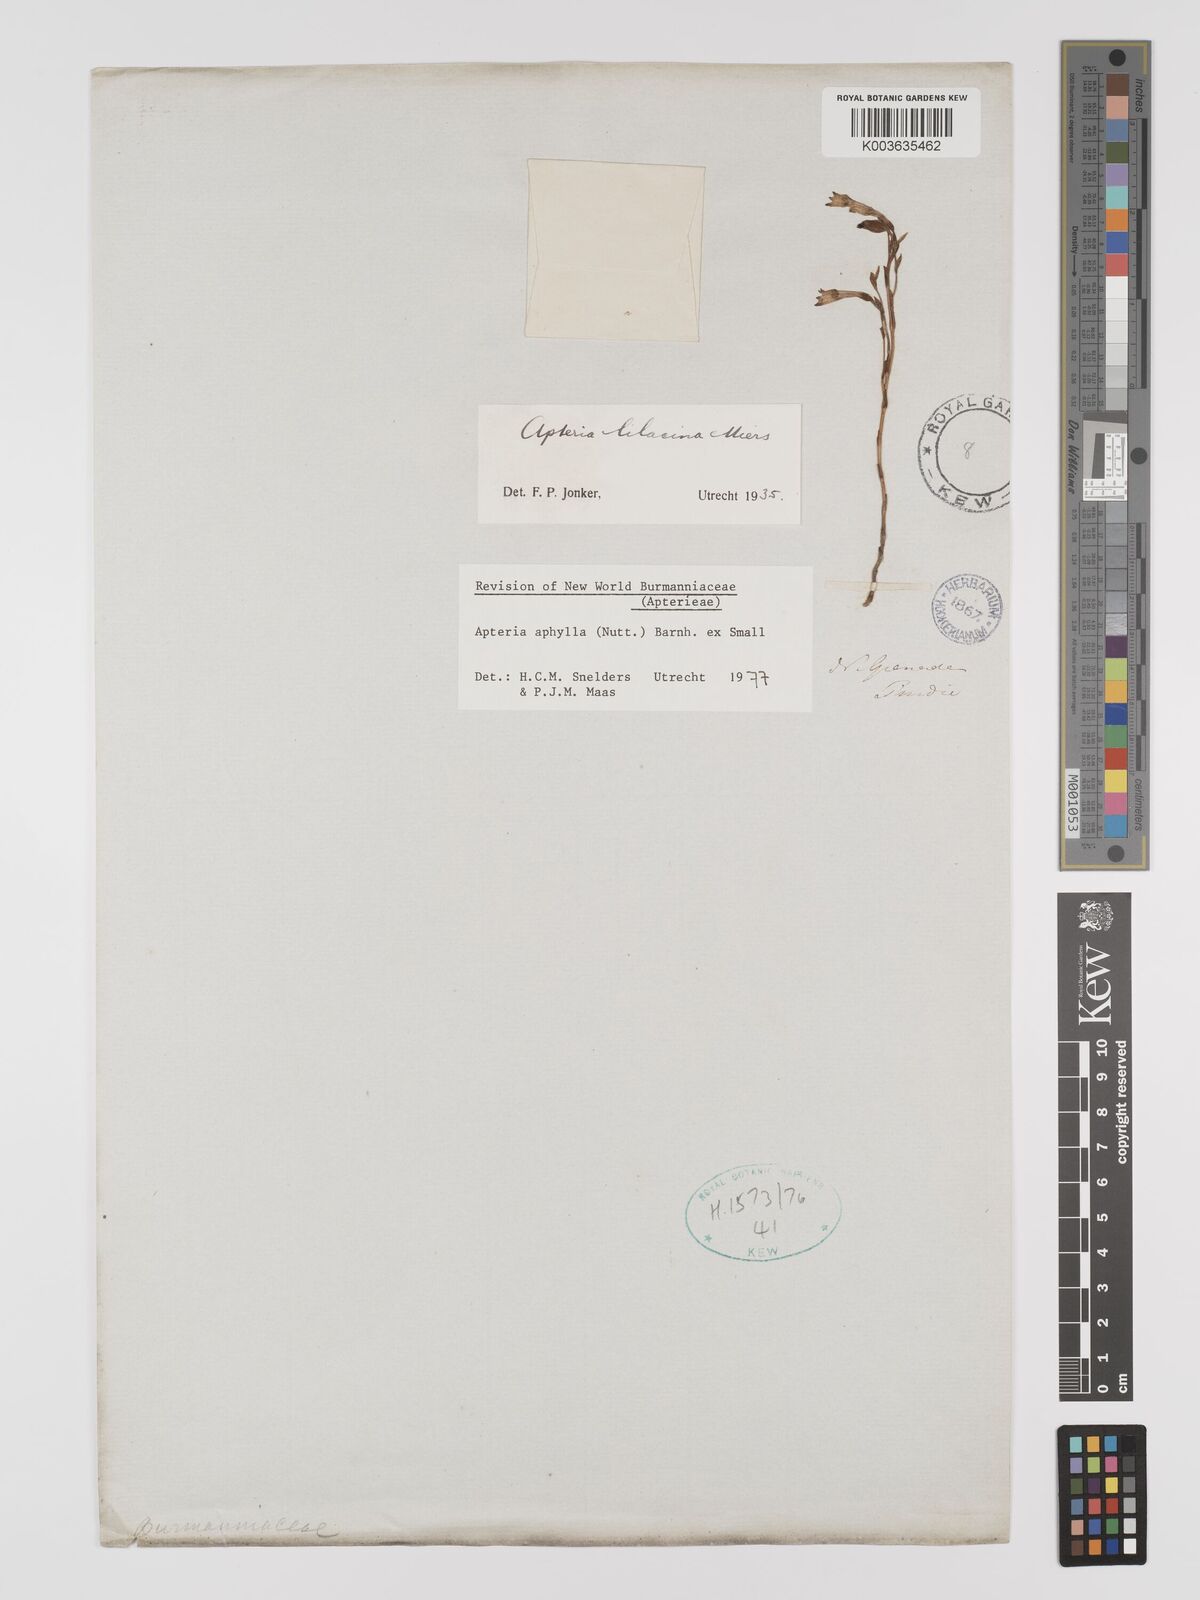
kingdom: Plantae
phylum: Tracheophyta
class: Liliopsida
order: Dioscoreales
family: Burmanniaceae
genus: Apteria
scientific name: Apteria aphylla
